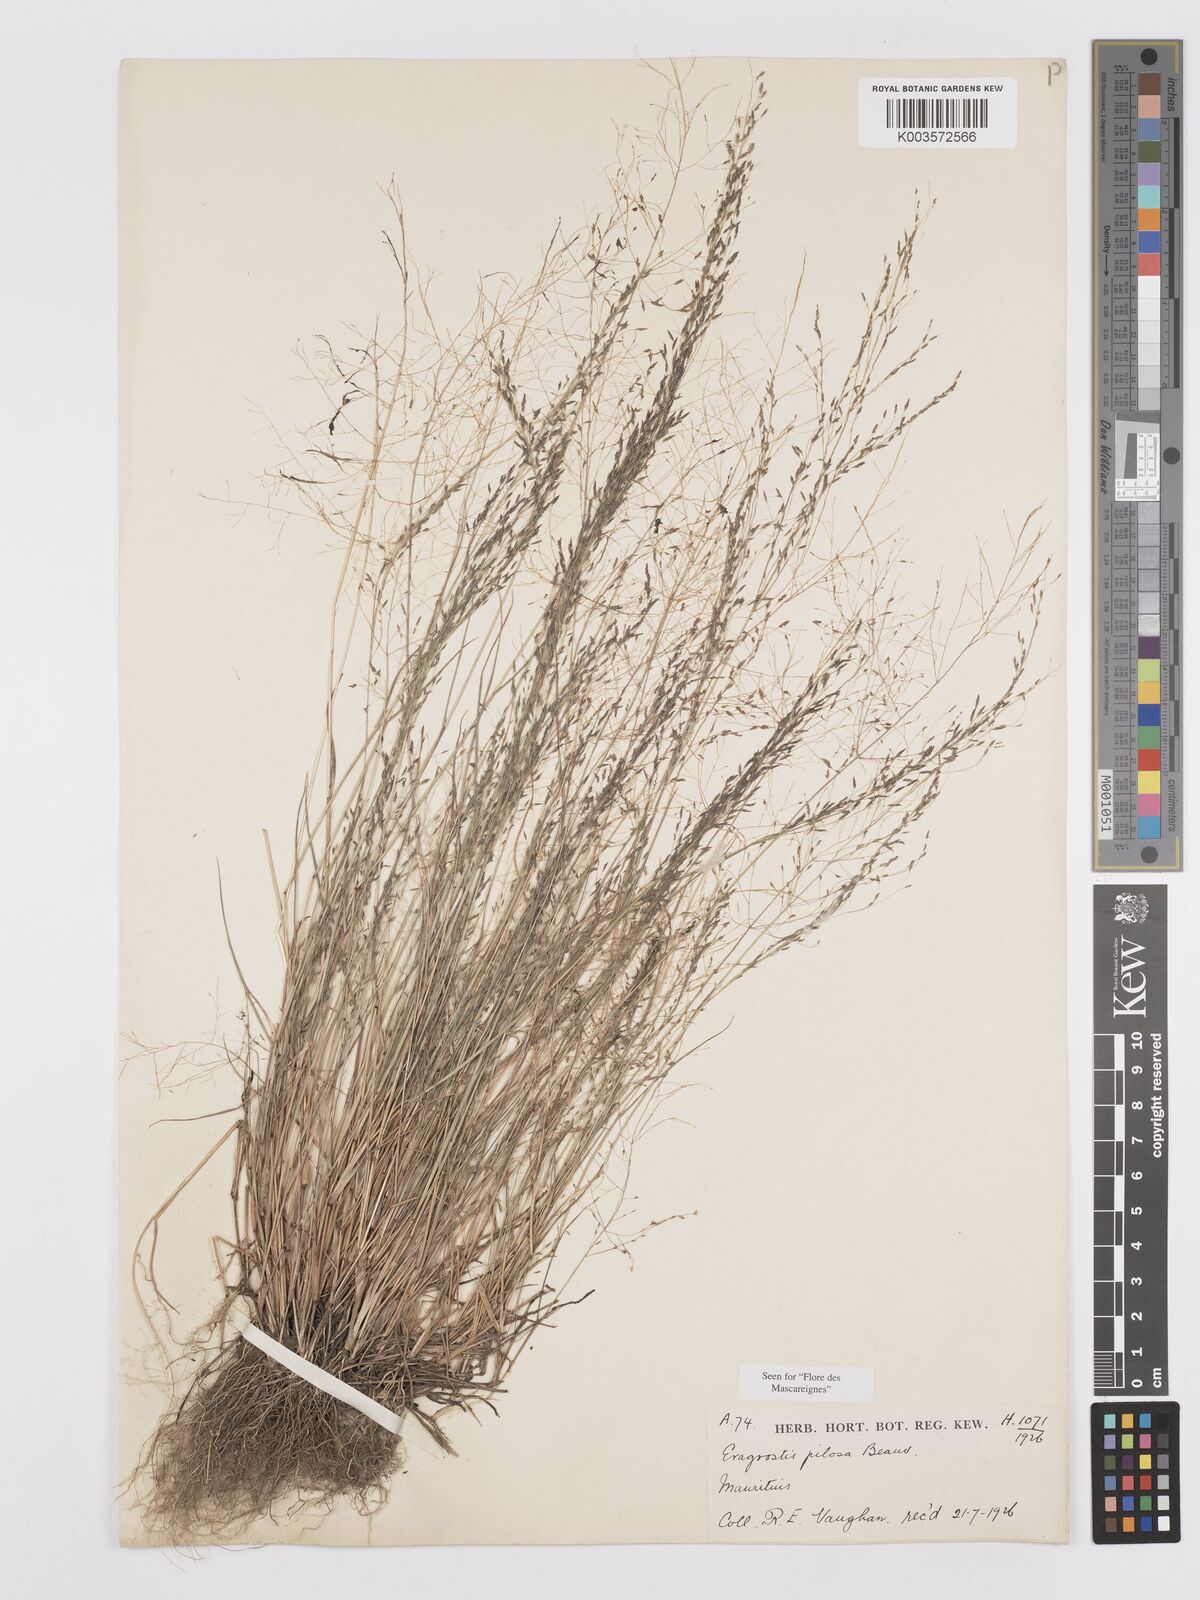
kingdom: Plantae
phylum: Tracheophyta
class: Liliopsida
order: Poales
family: Poaceae
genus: Eragrostis
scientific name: Eragrostis pilosa
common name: Indian lovegrass
